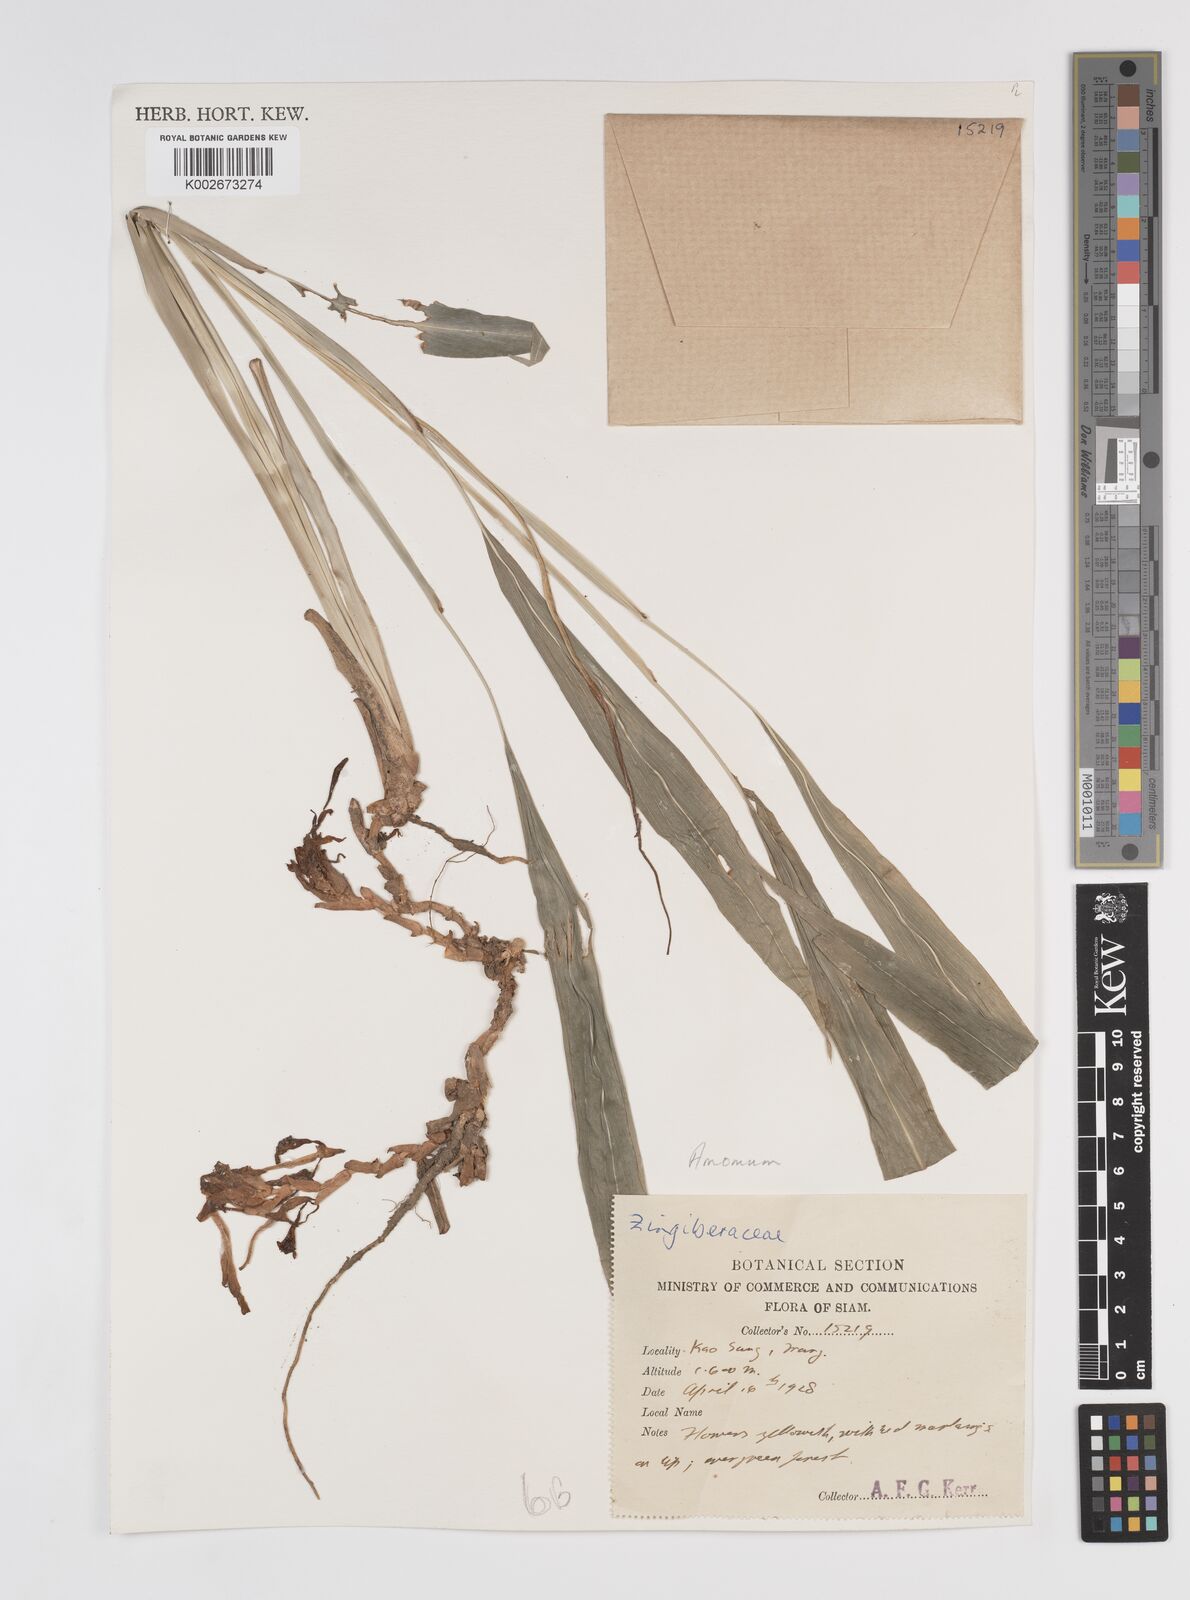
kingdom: Plantae
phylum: Tracheophyta
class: Liliopsida
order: Zingiberales
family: Zingiberaceae
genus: Amomum
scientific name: Amomum
